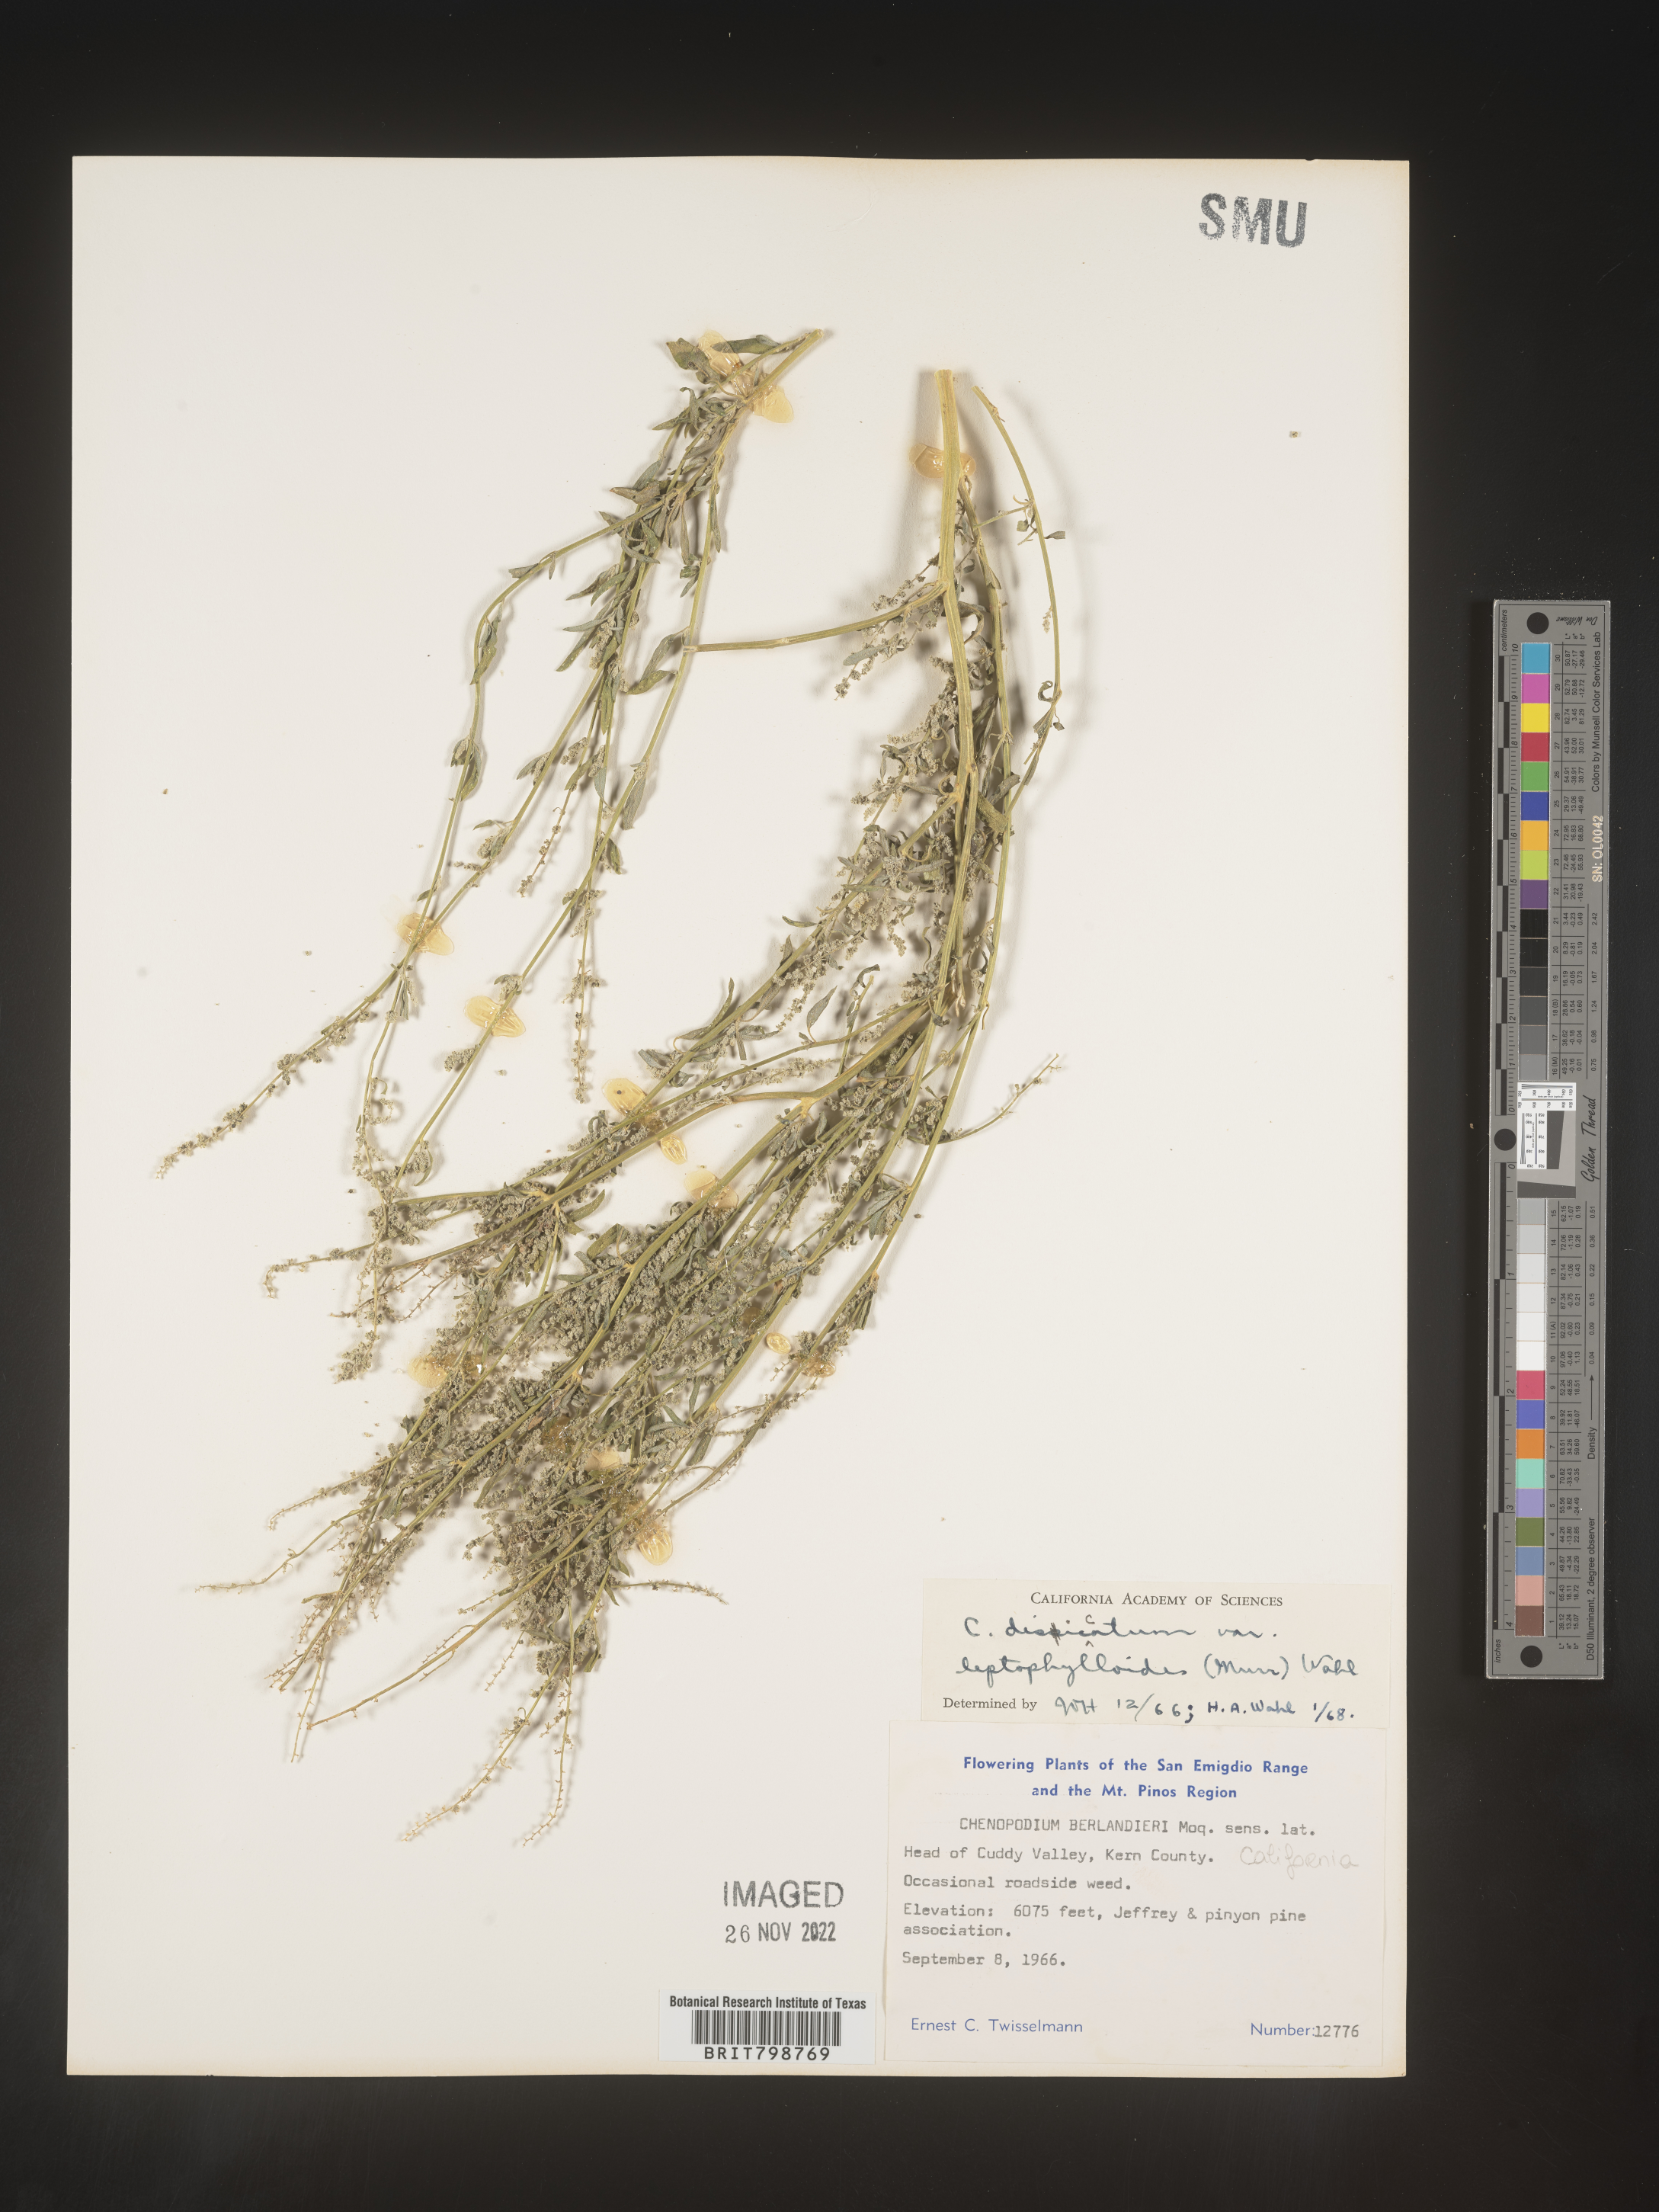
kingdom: Plantae
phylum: Tracheophyta
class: Magnoliopsida
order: Caryophyllales
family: Amaranthaceae
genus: Chenopodium
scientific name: Chenopodium desiccatum
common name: Slimleaf goosefoot
